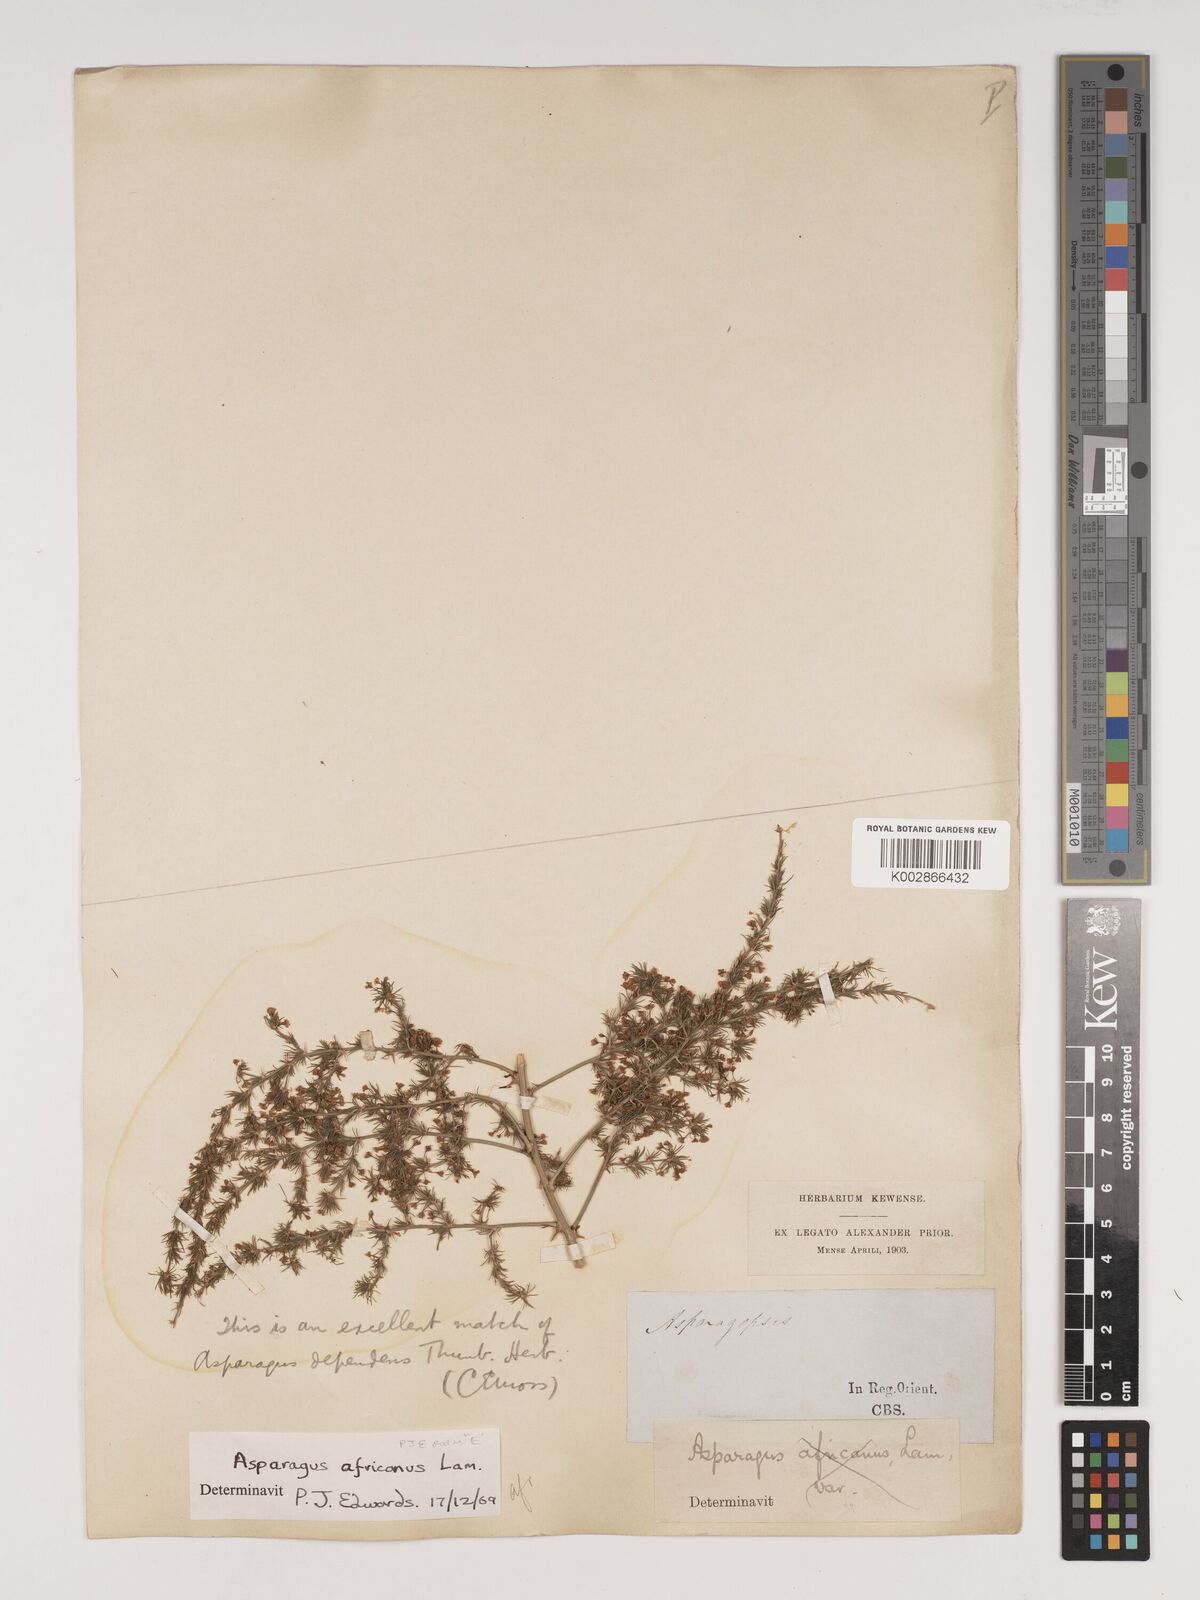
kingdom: Plantae
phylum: Tracheophyta
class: Liliopsida
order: Asparagales
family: Asparagaceae
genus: Asparagus
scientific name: Asparagus africanus
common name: Asparagus-fern
